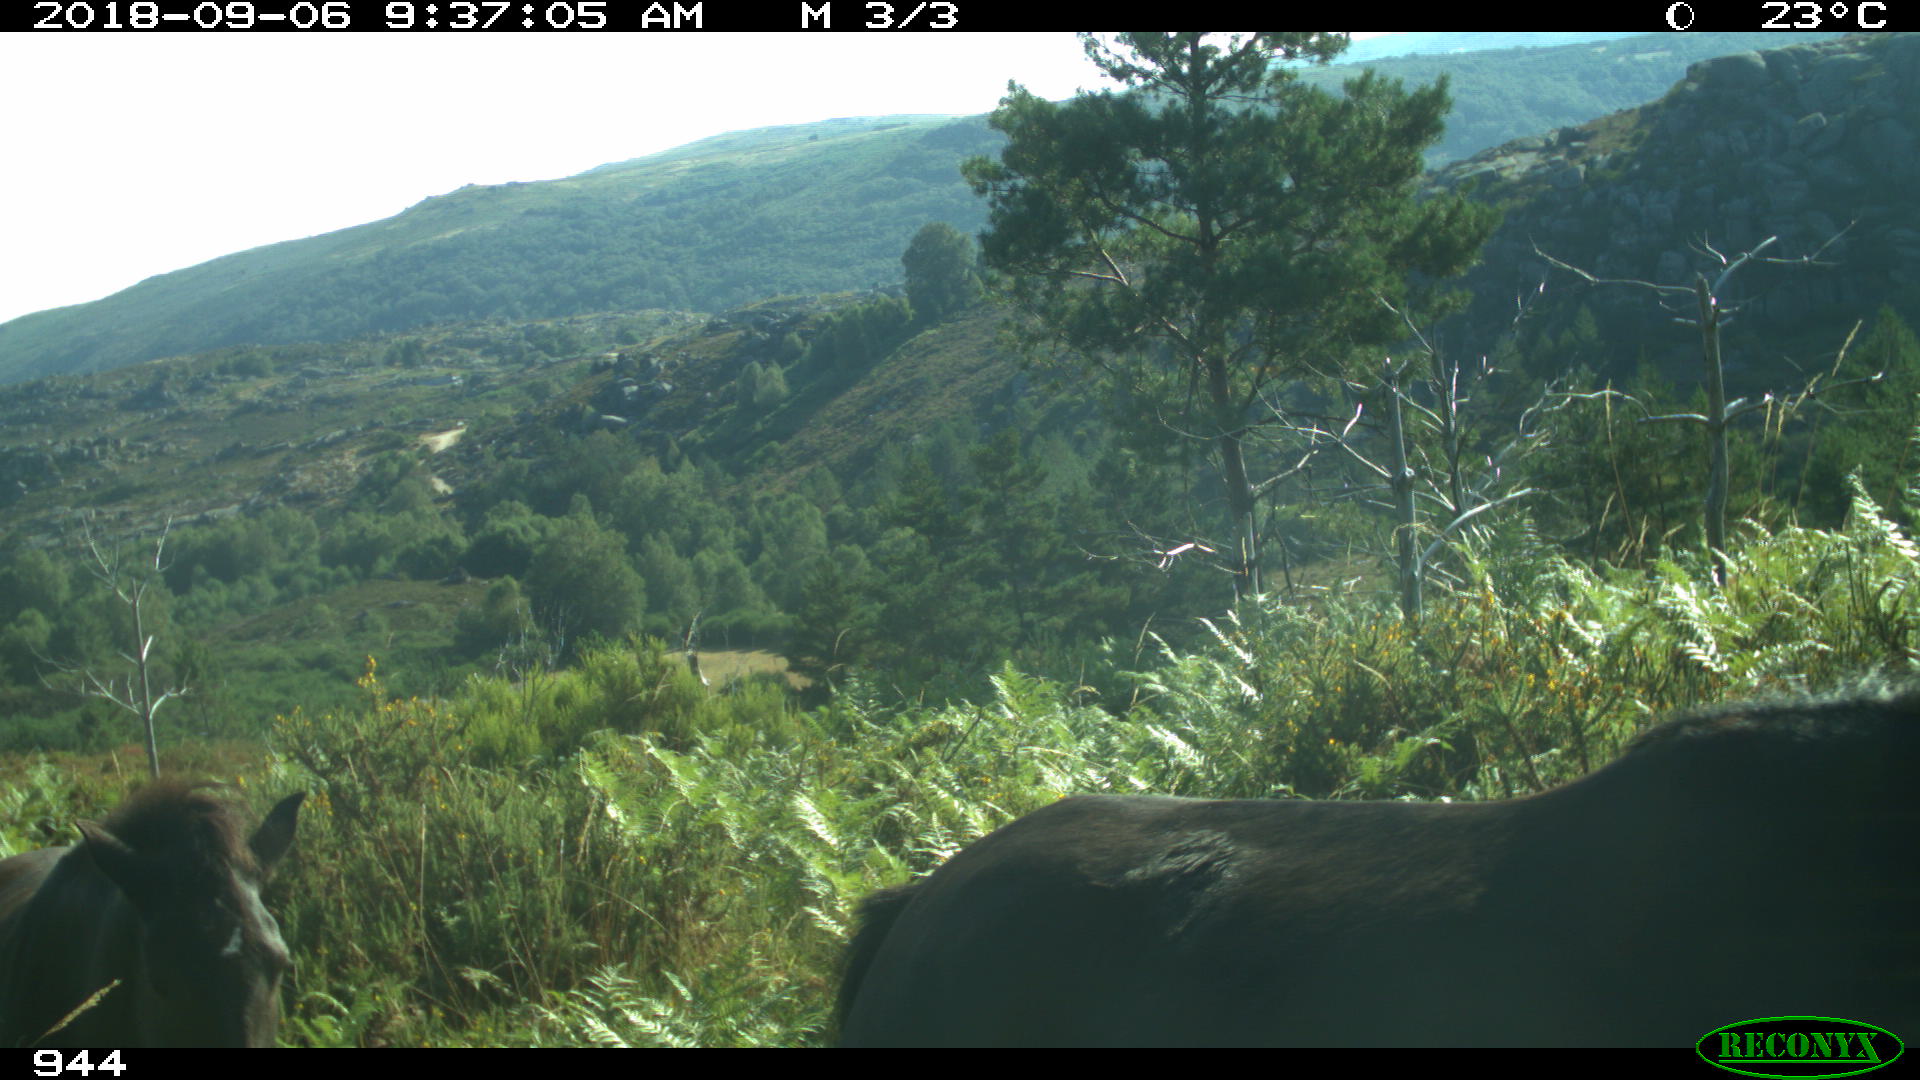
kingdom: Animalia
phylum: Chordata
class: Mammalia
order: Perissodactyla
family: Equidae
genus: Equus
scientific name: Equus caballus
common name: Horse
